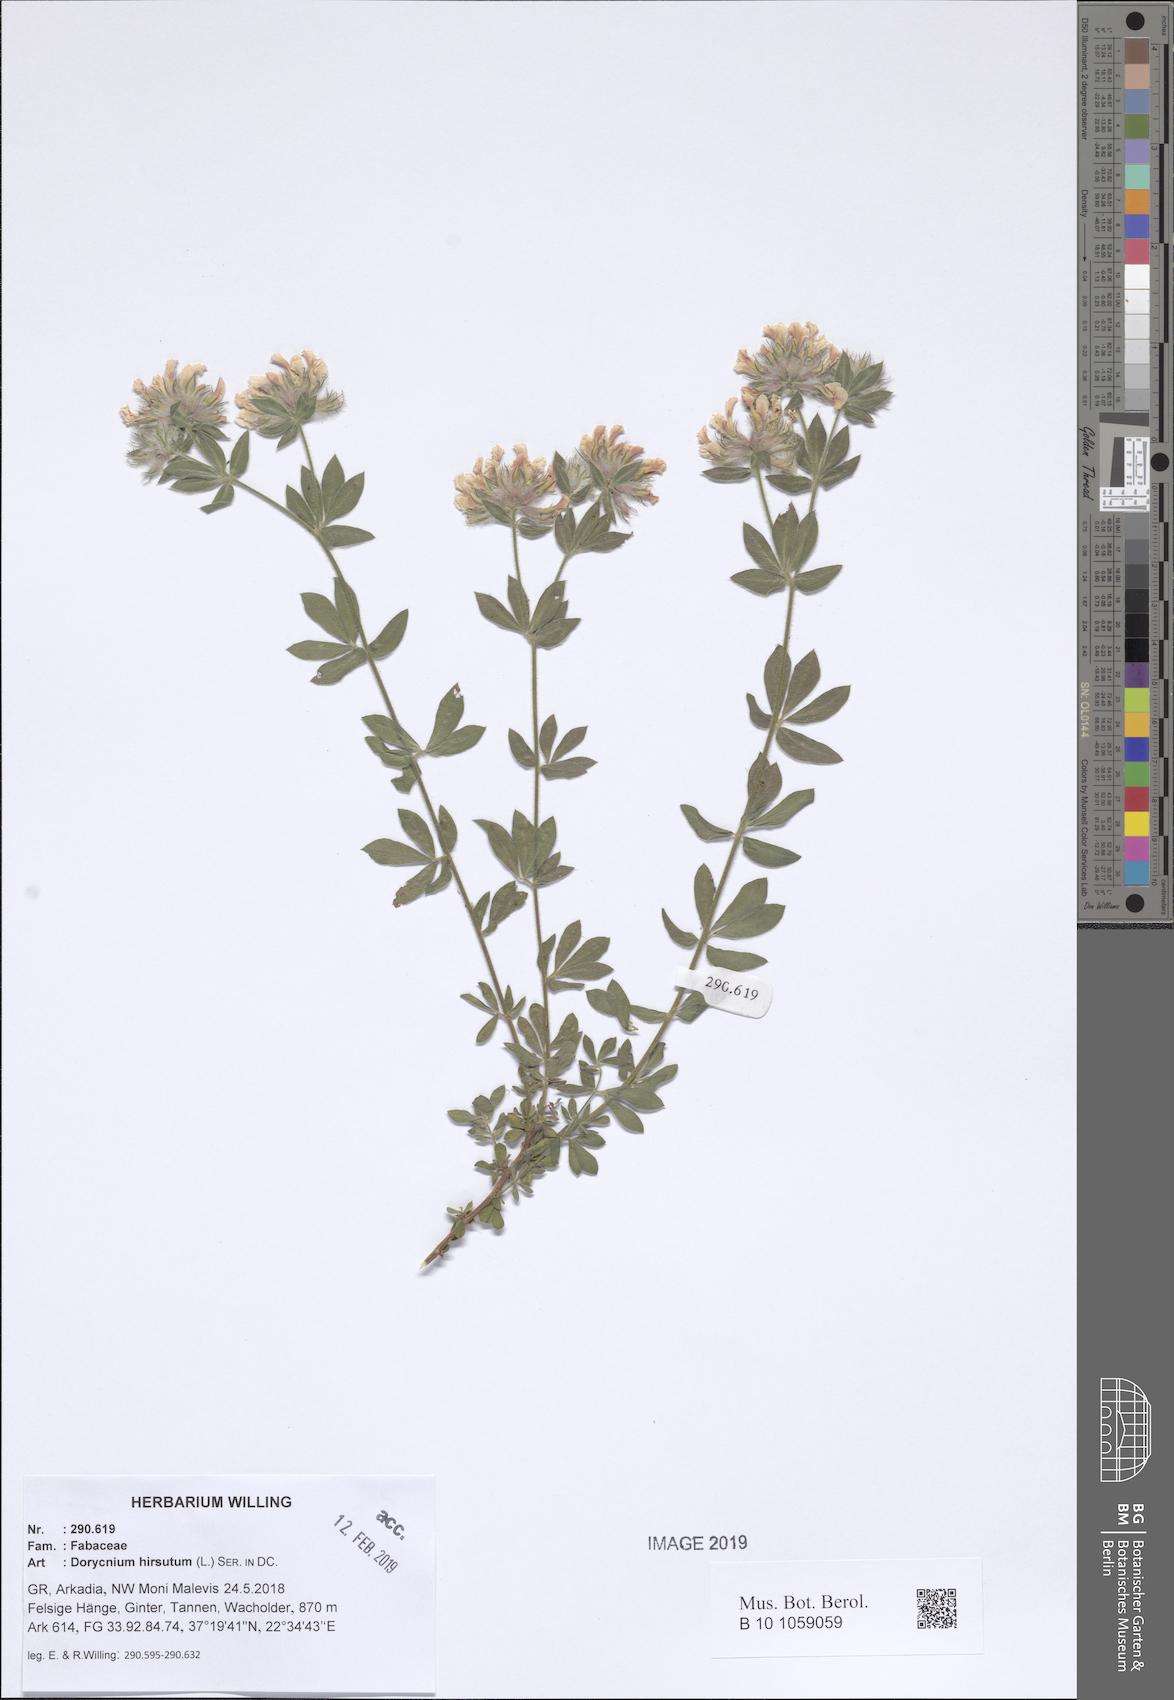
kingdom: Plantae
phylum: Tracheophyta
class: Magnoliopsida
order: Fabales
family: Fabaceae
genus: Lotus
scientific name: Lotus hirsutus
